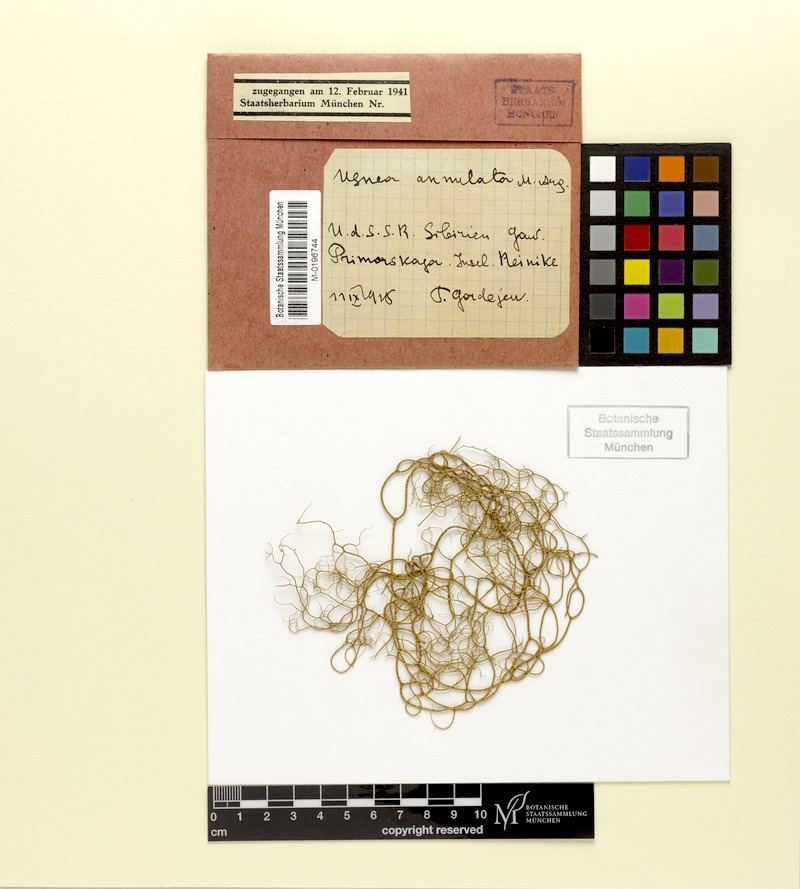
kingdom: Fungi
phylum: Ascomycota
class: Lecanoromycetes
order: Lecanorales
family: Parmeliaceae
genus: Usnea
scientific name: Usnea
